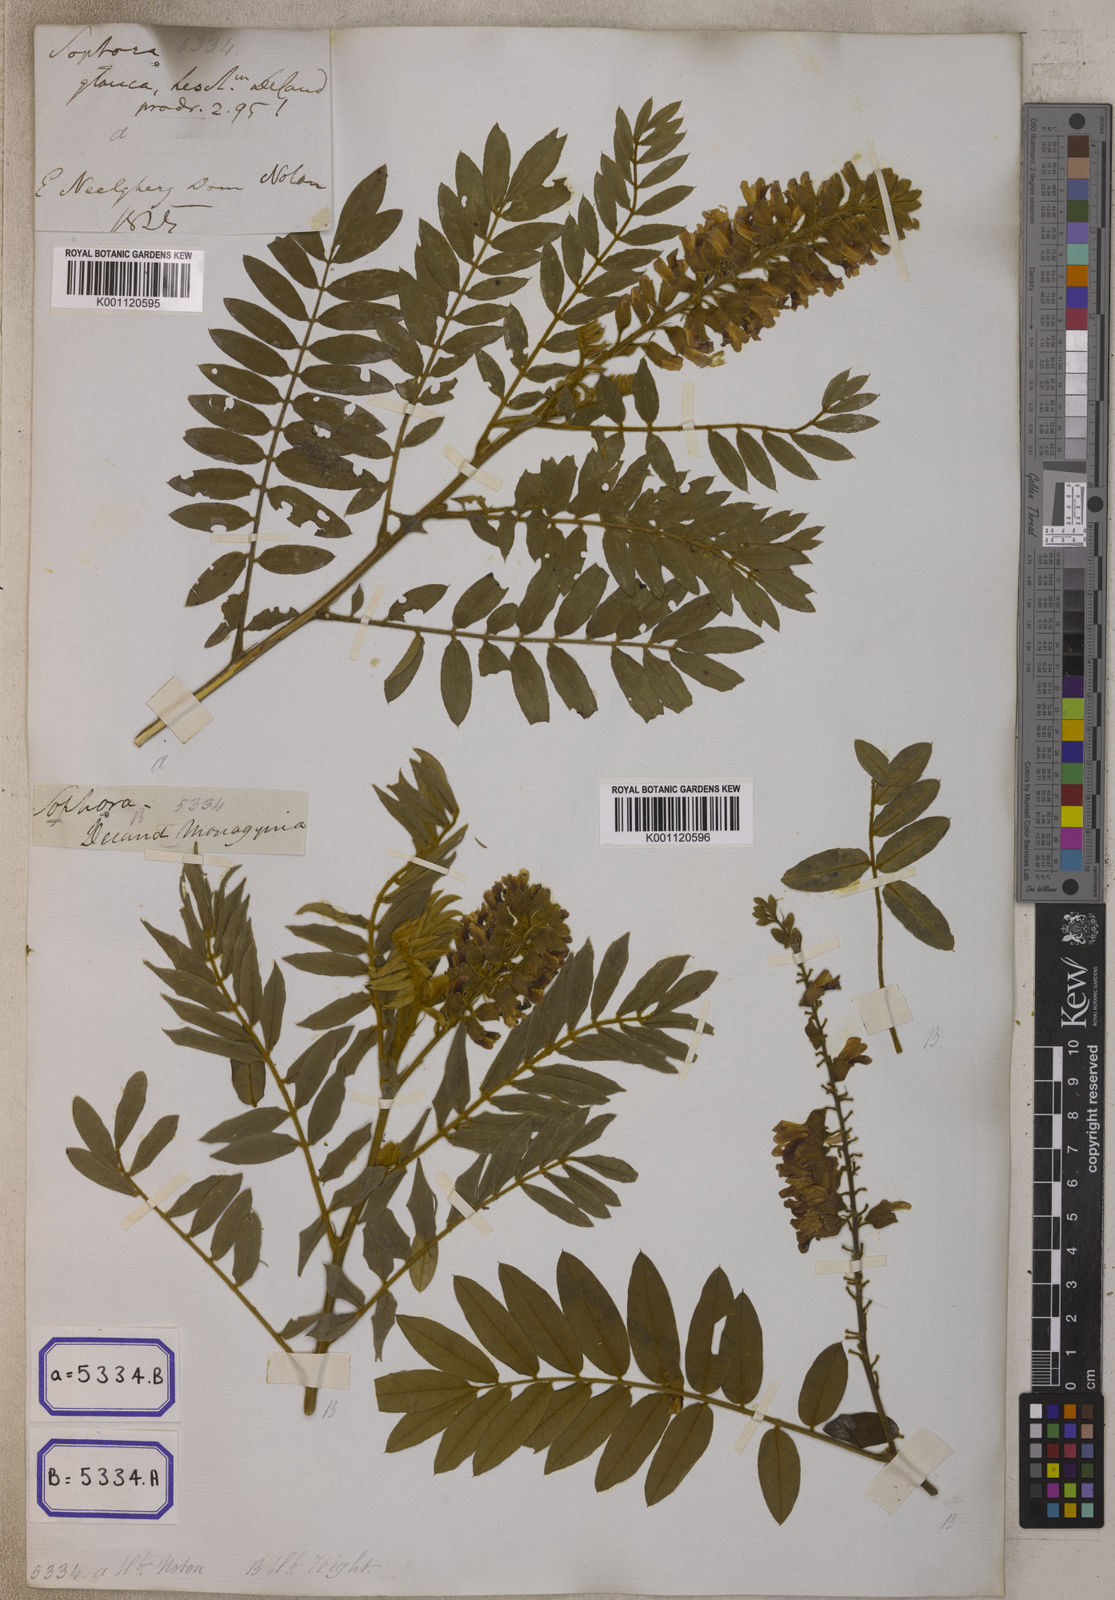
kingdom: Plantae
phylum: Tracheophyta
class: Magnoliopsida
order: Fabales
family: Fabaceae
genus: Baptisia
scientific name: Baptisia alba
